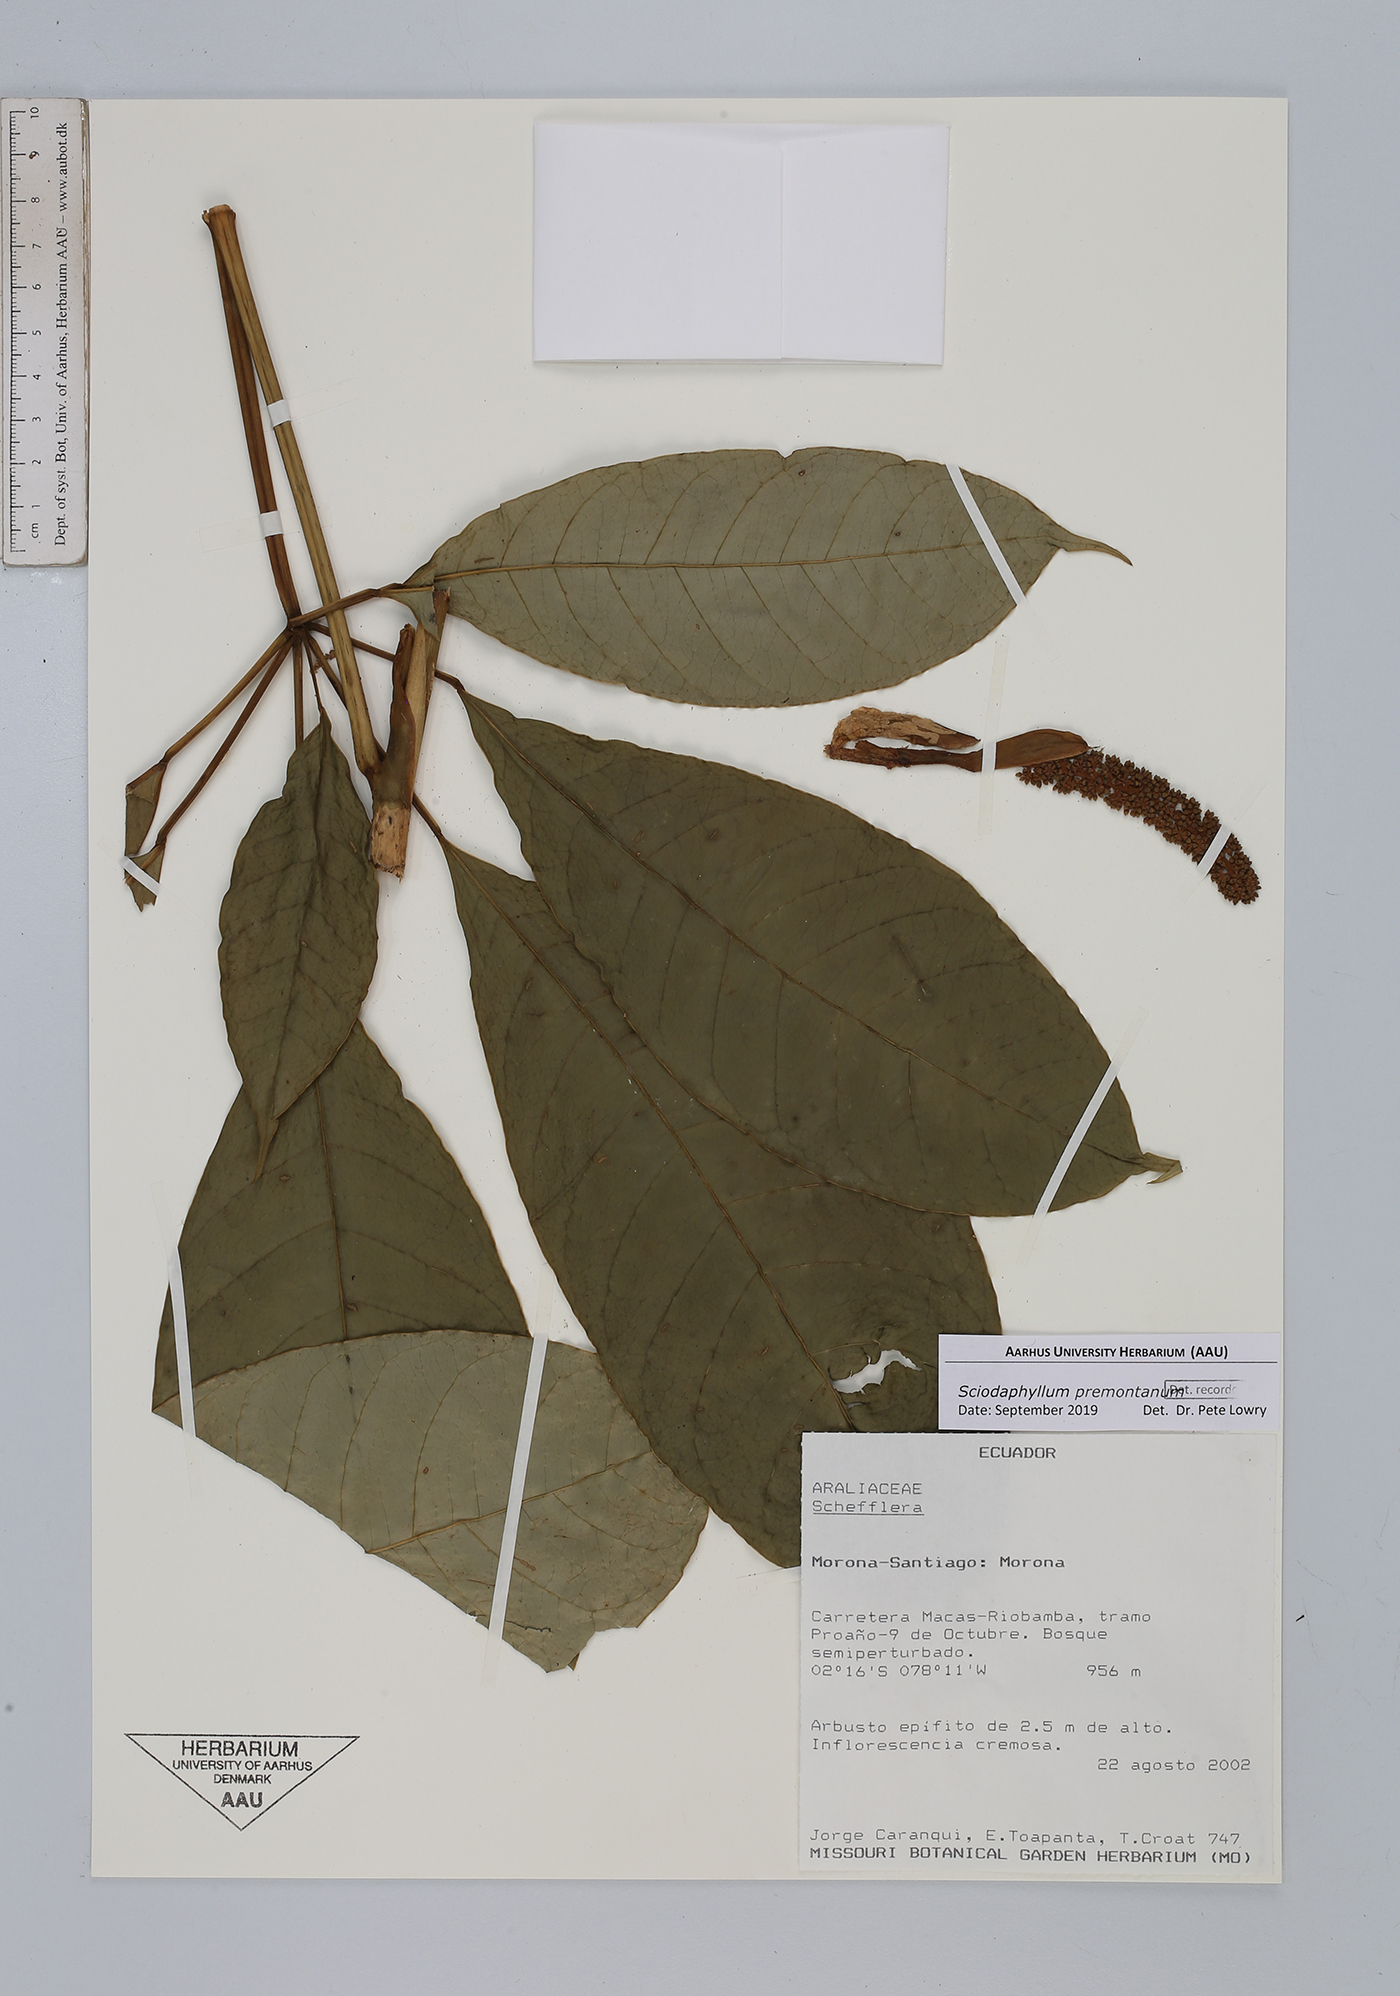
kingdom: Plantae
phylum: Tracheophyta
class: Magnoliopsida
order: Apiales
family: Araliaceae
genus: Sciodaphyllum
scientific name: Sciodaphyllum
